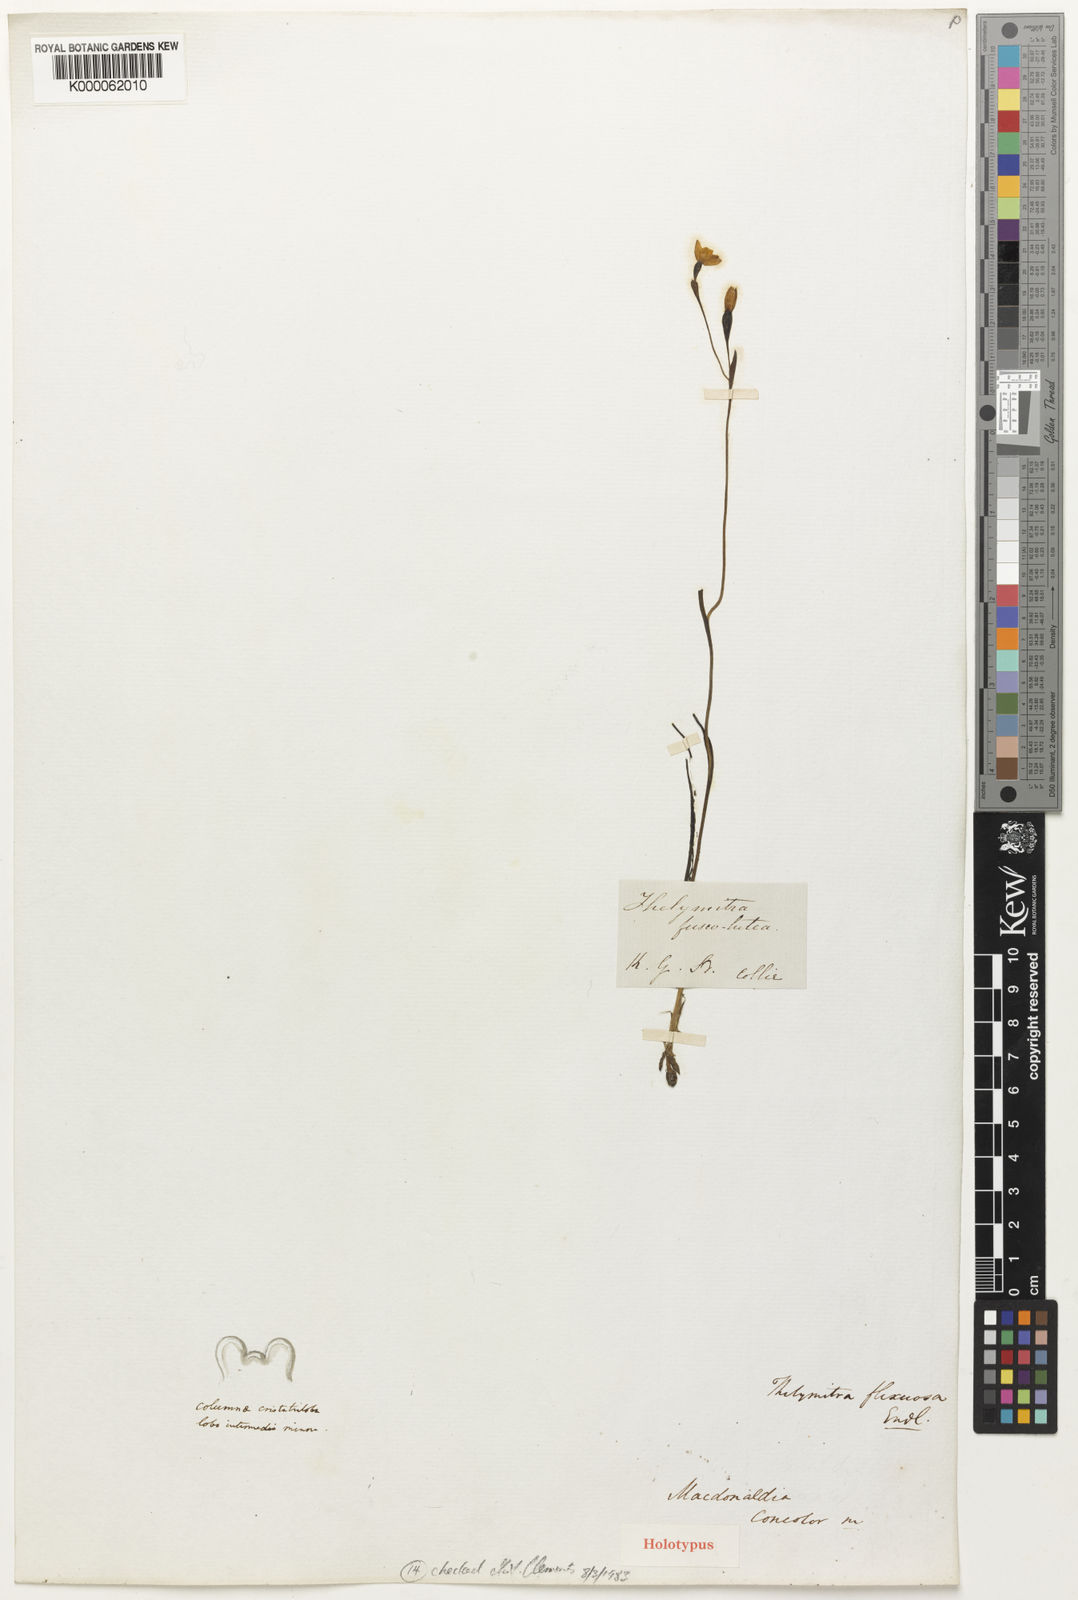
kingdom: Plantae
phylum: Tracheophyta
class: Liliopsida
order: Asparagales
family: Orchidaceae
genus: Thelymitra
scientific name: Thelymitra flexuosa
